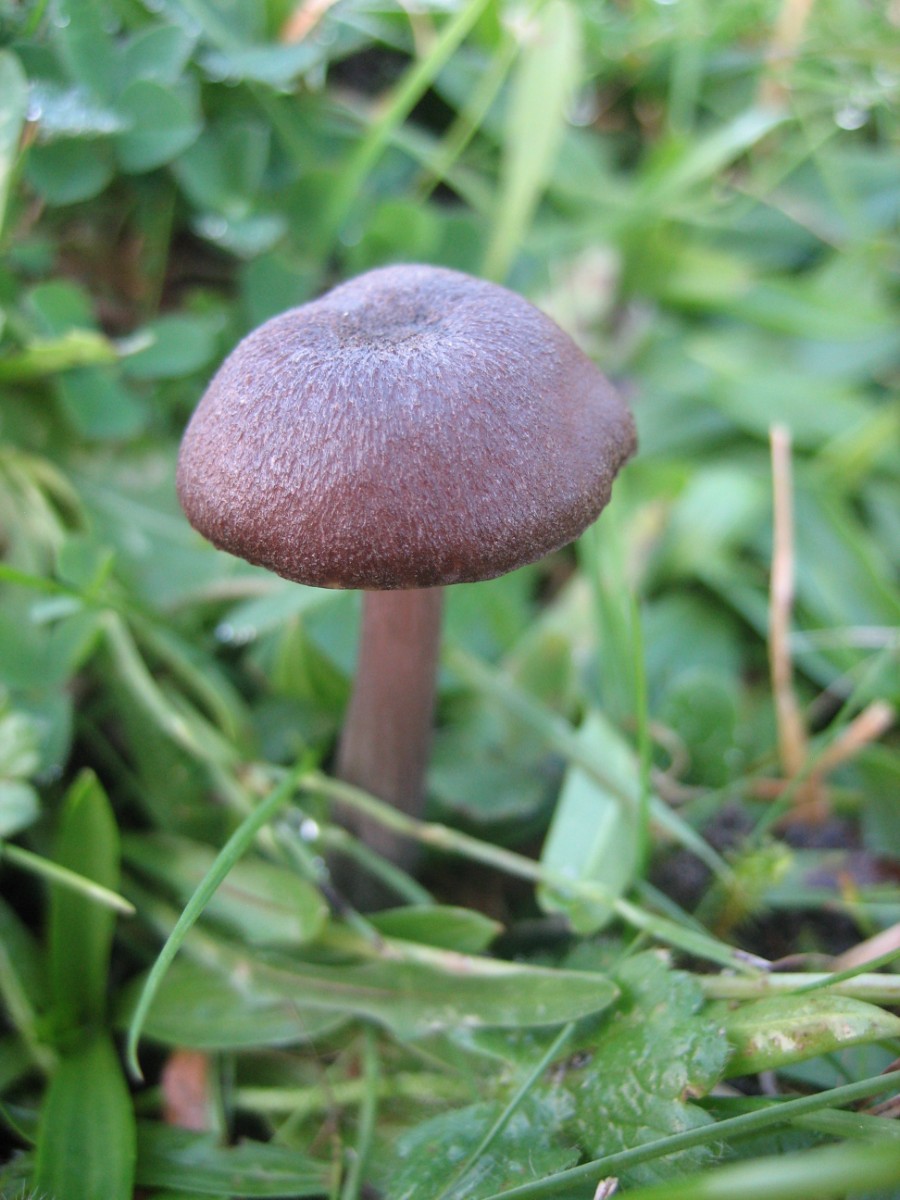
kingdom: Fungi
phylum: Basidiomycota
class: Agaricomycetes
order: Agaricales
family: Entolomataceae
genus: Entoloma
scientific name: Entoloma
